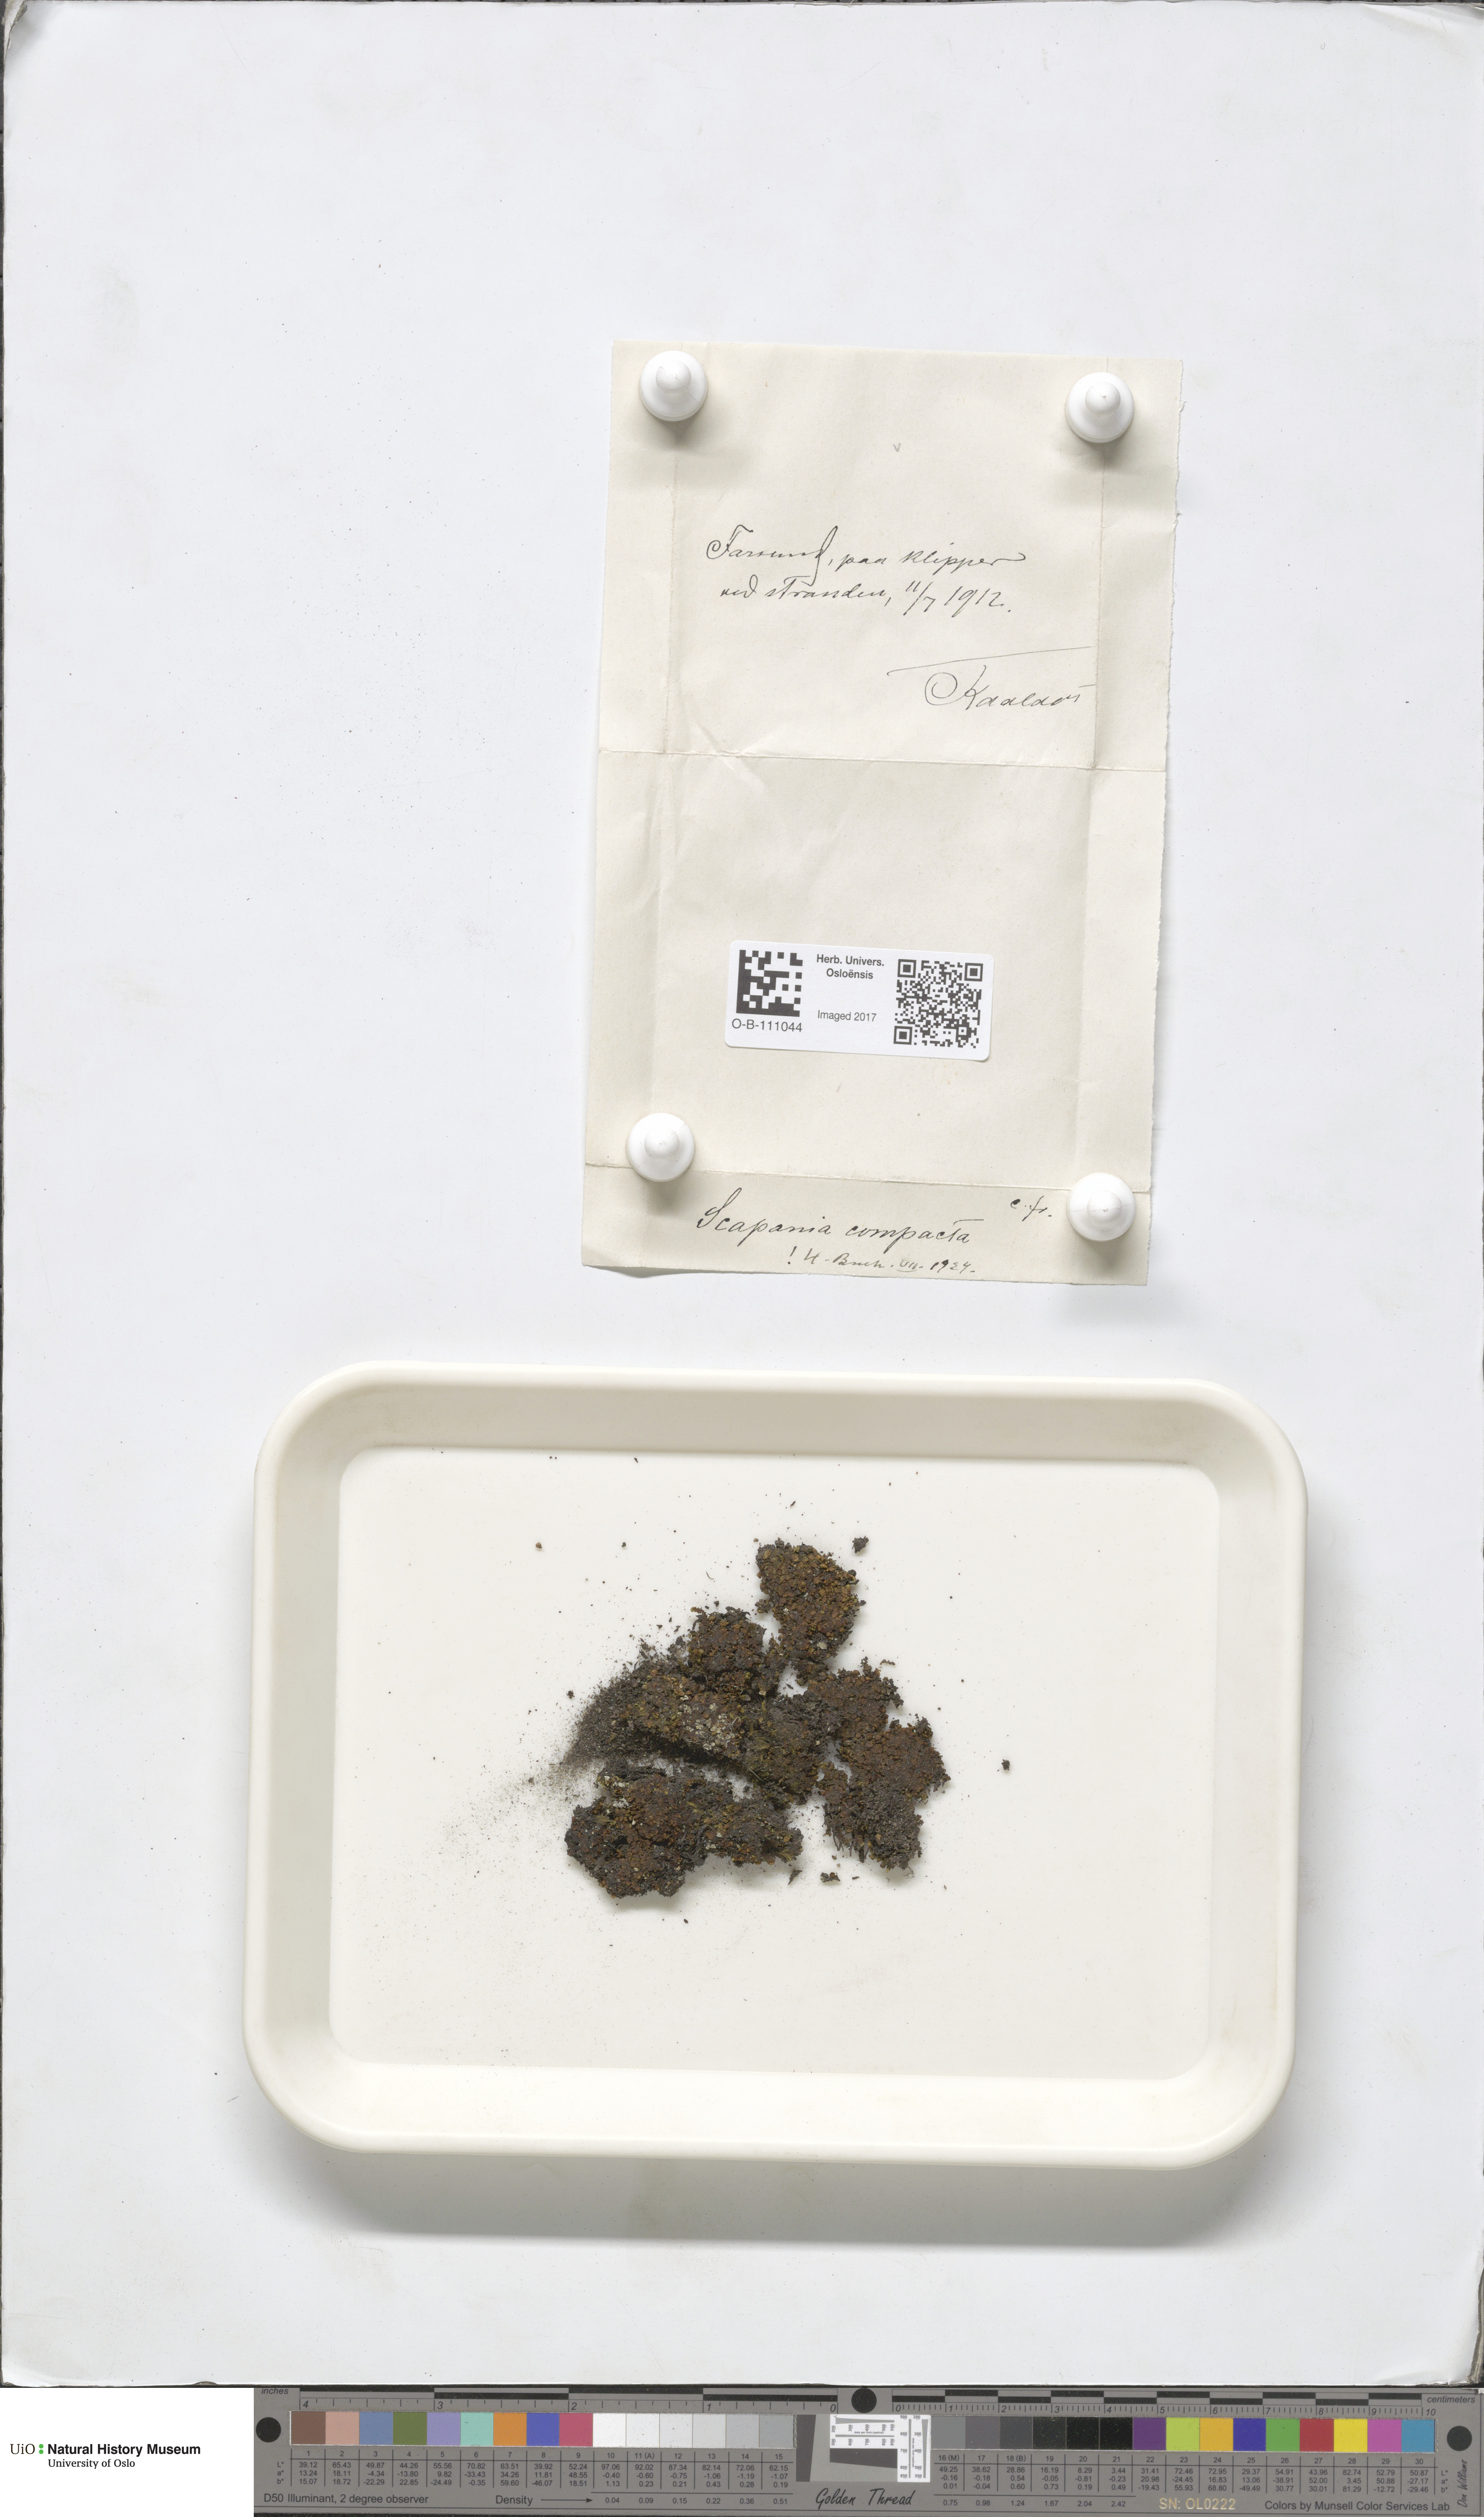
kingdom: Plantae
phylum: Marchantiophyta
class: Jungermanniopsida
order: Jungermanniales
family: Scapaniaceae
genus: Scapania
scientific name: Scapania compacta
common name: Thick-set earwort
